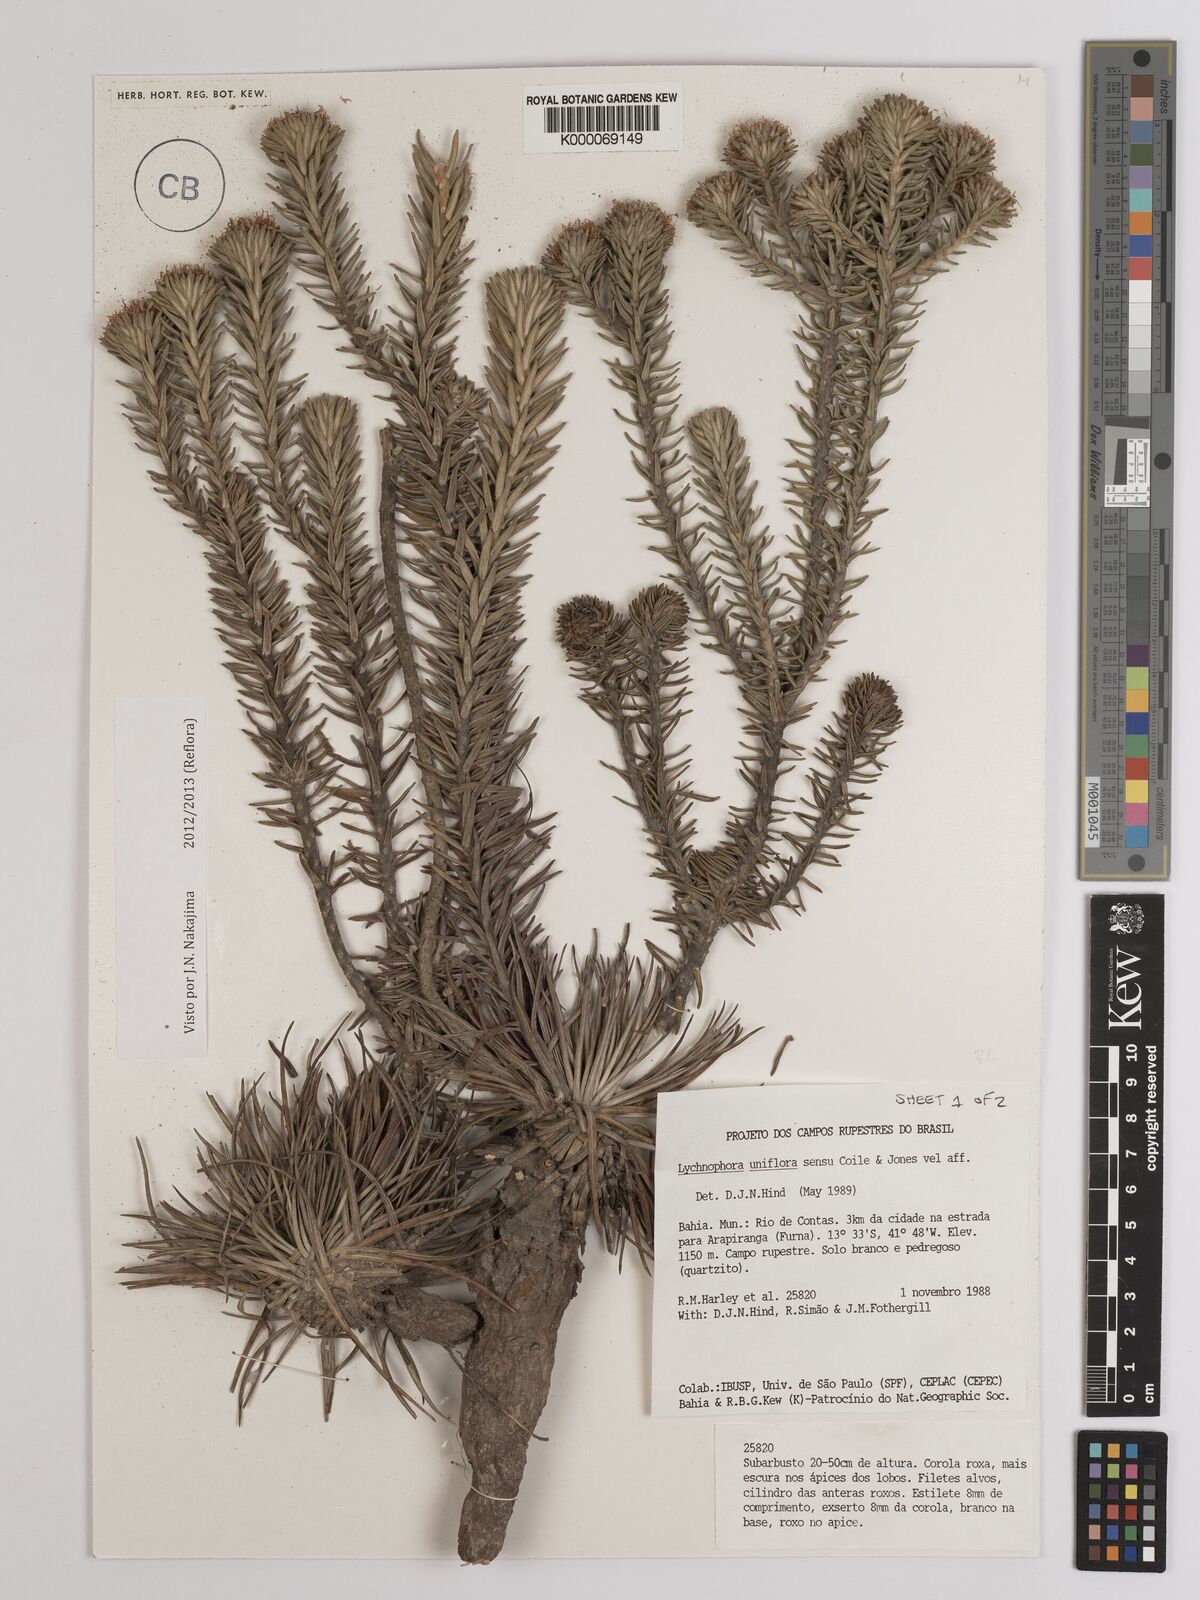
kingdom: Plantae
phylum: Tracheophyta
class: Magnoliopsida
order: Asterales
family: Asteraceae
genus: Lychnophora
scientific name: Lychnophora uniflora
